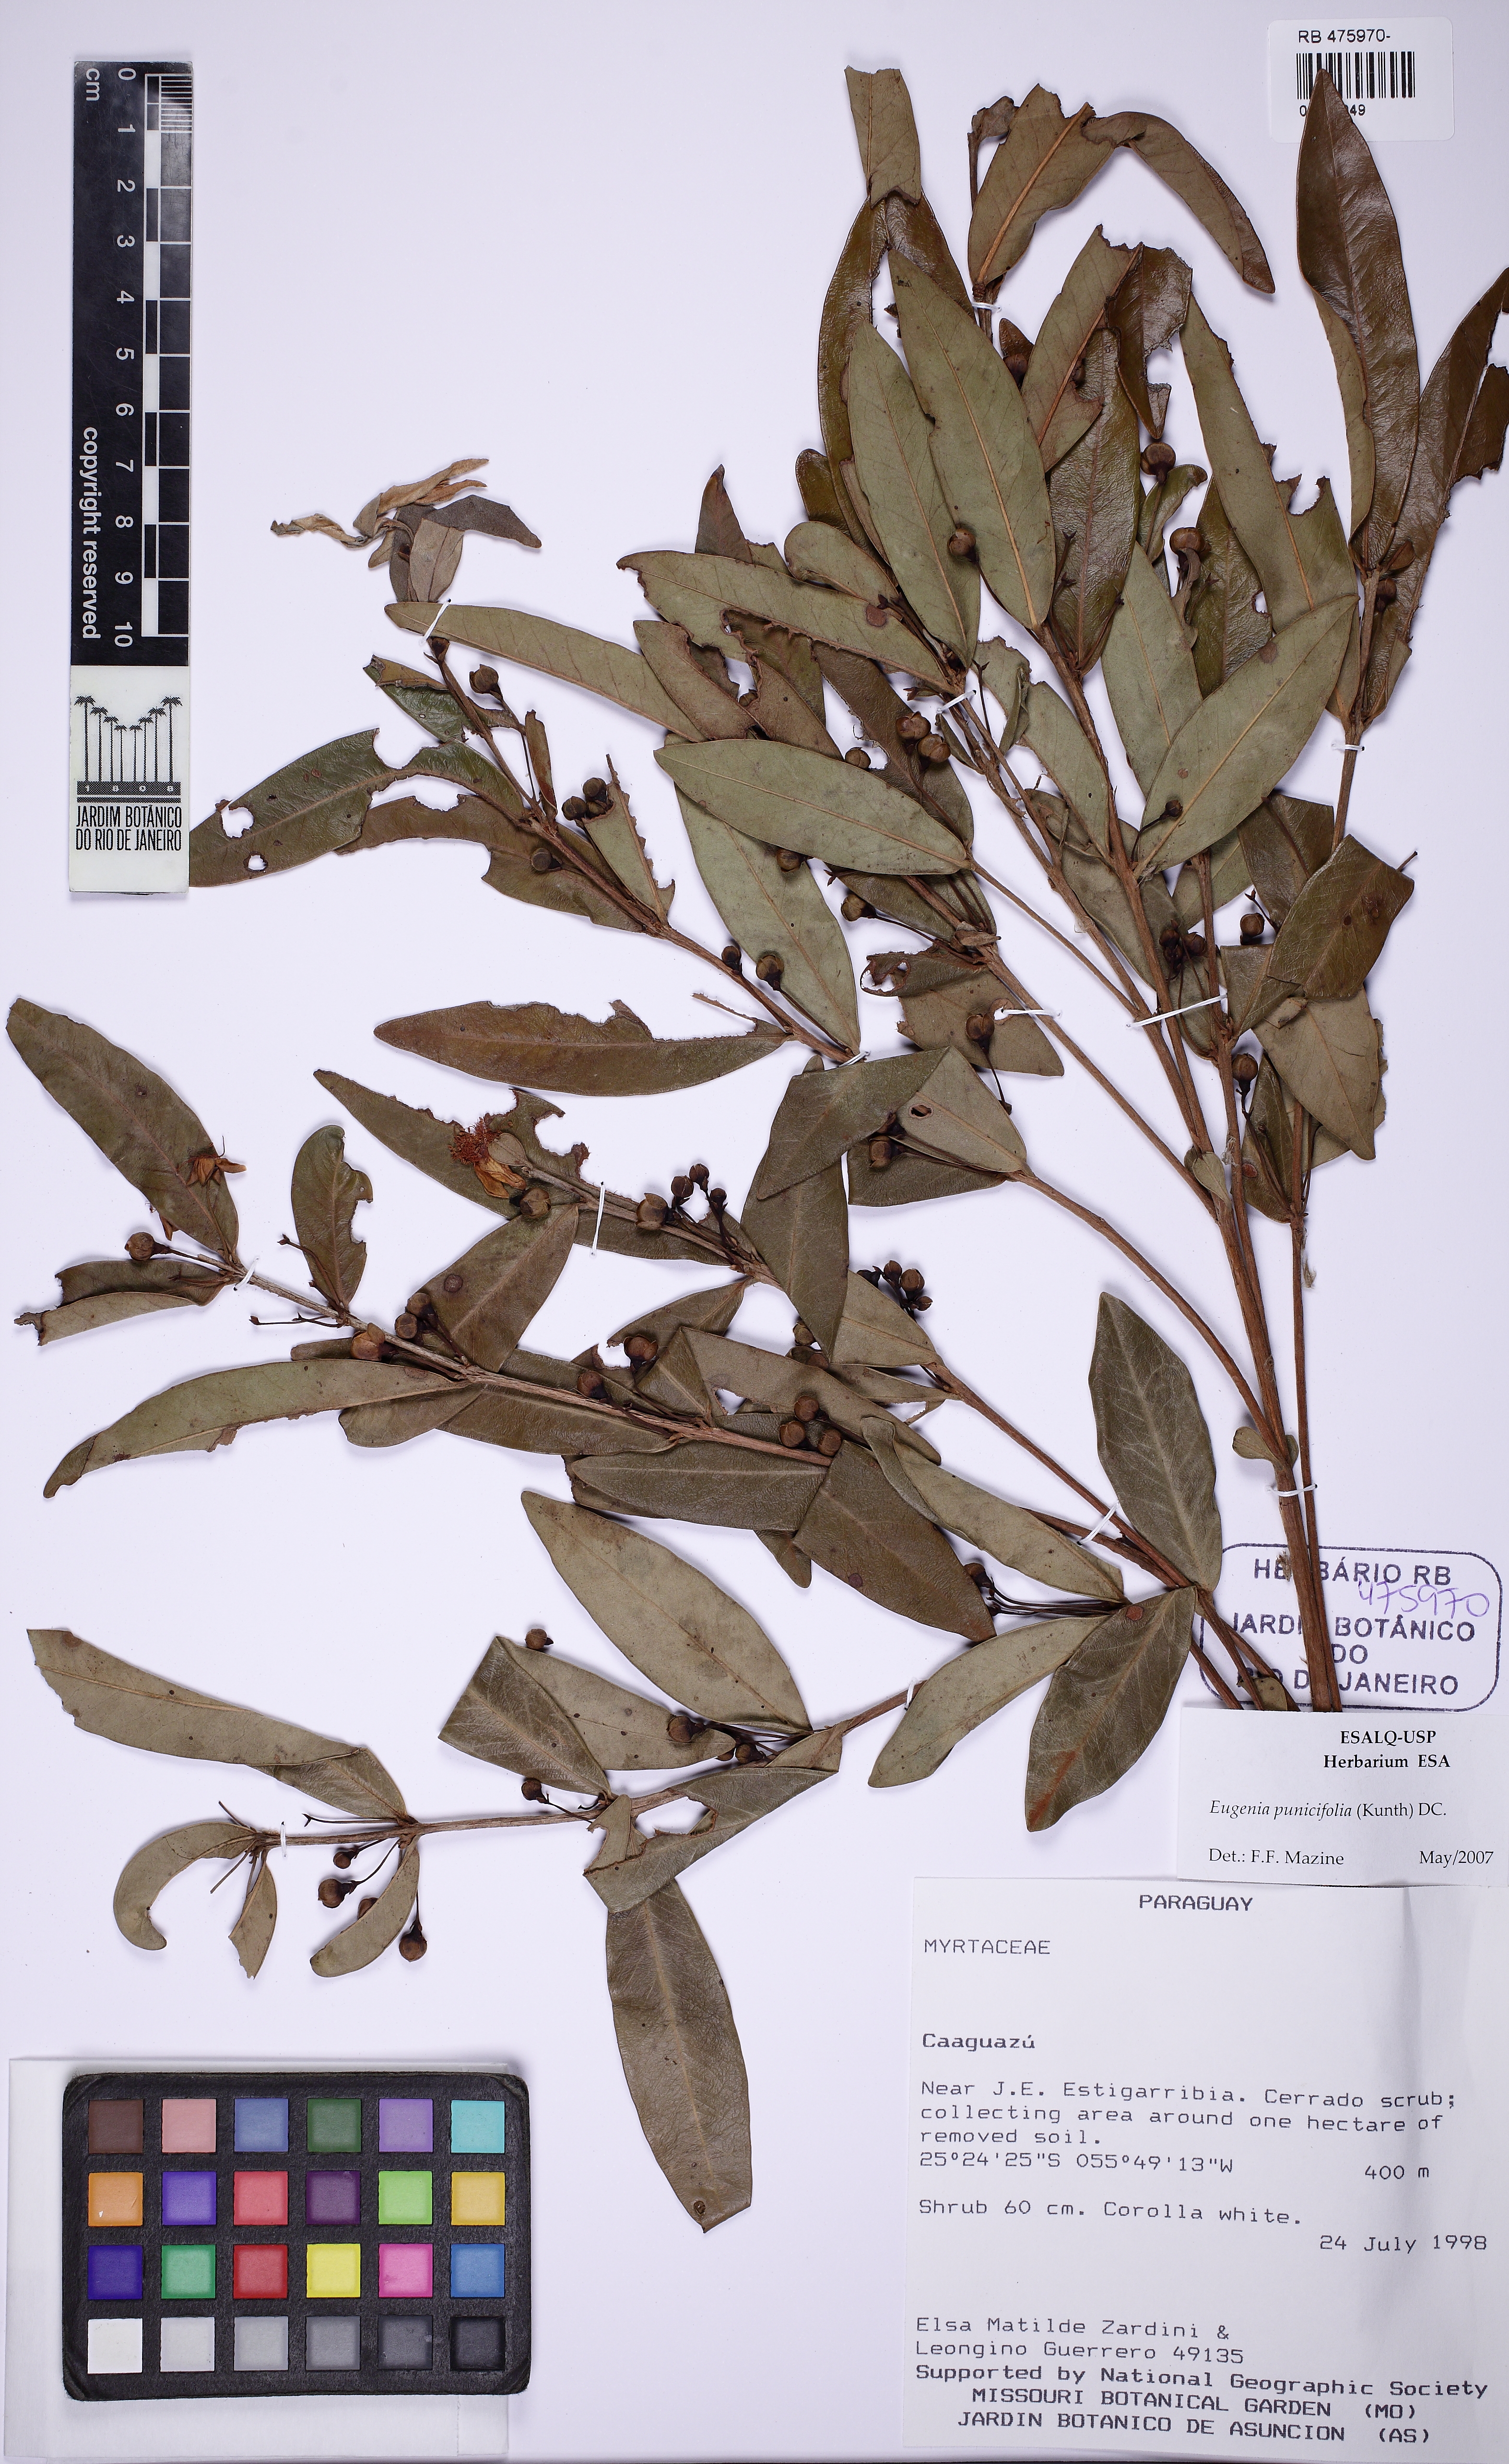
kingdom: Plantae
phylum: Tracheophyta
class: Magnoliopsida
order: Myrtales
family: Myrtaceae
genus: Eugenia
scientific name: Eugenia punicifolia
